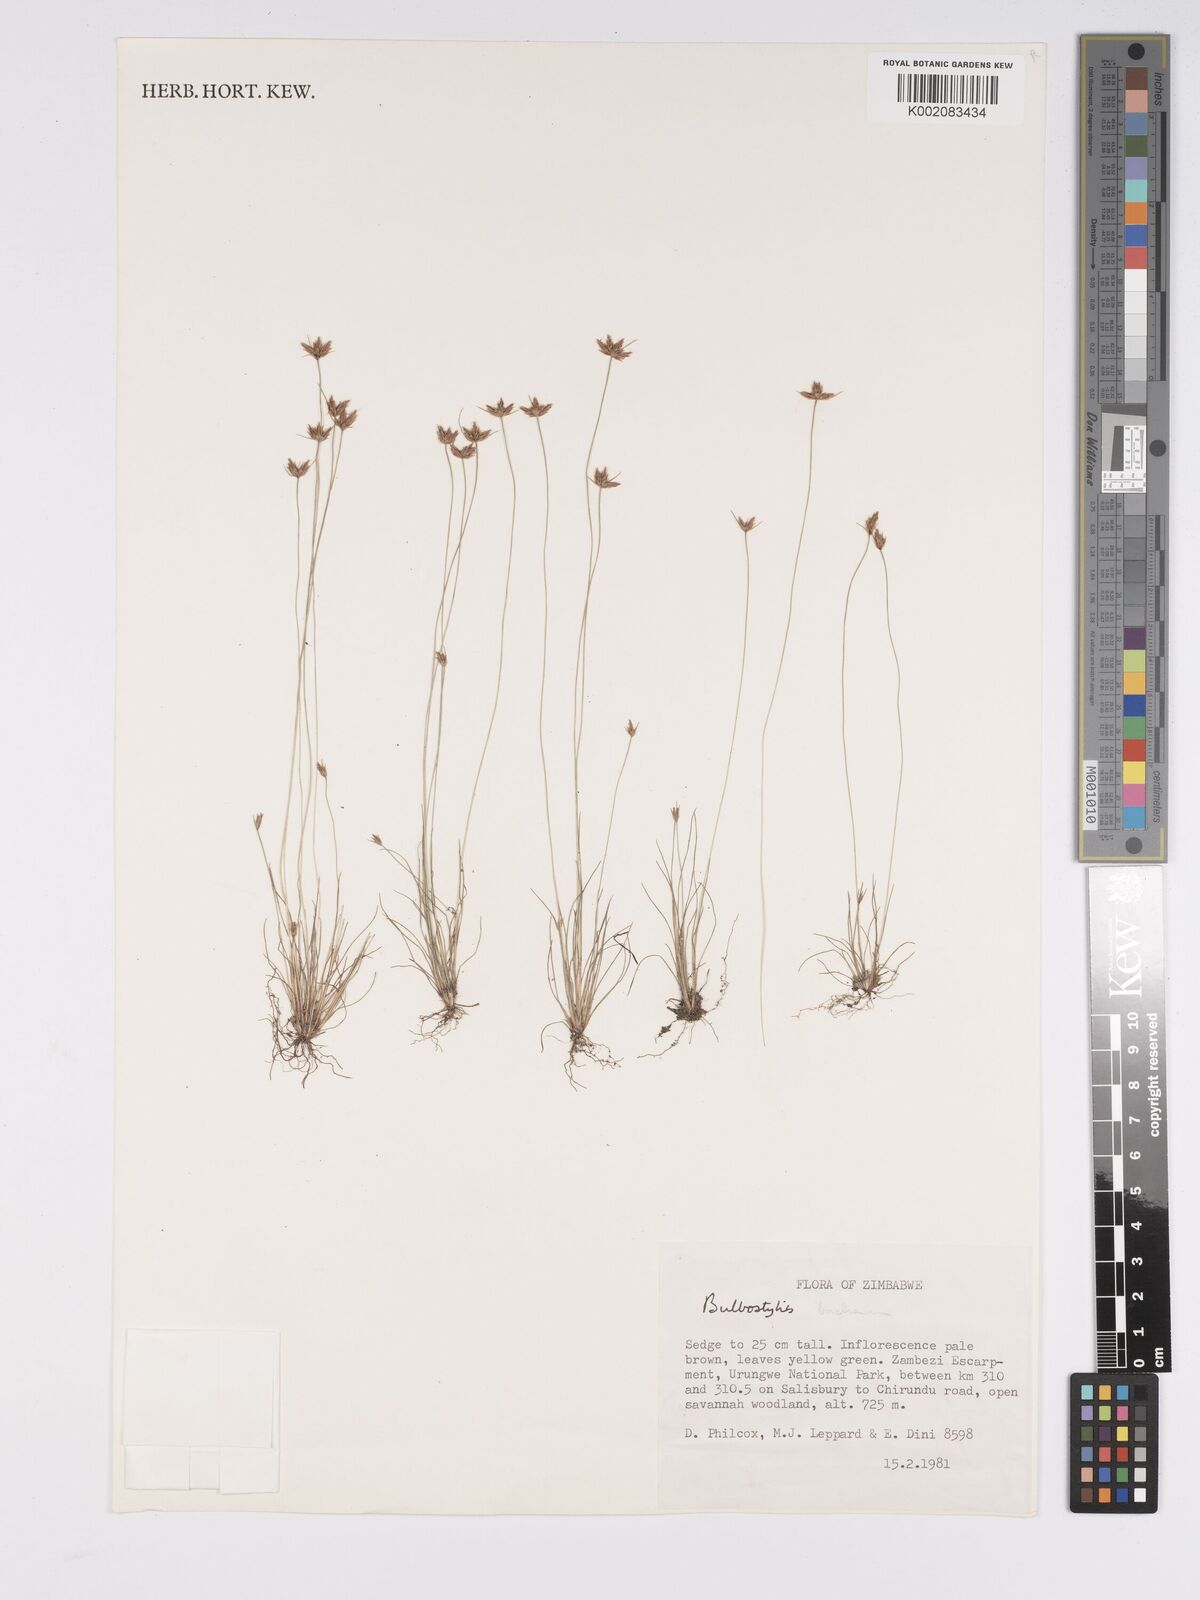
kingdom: Plantae
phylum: Tracheophyta
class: Liliopsida
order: Poales
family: Cyperaceae
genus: Bulbostylis
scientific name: Bulbostylis buchananii
